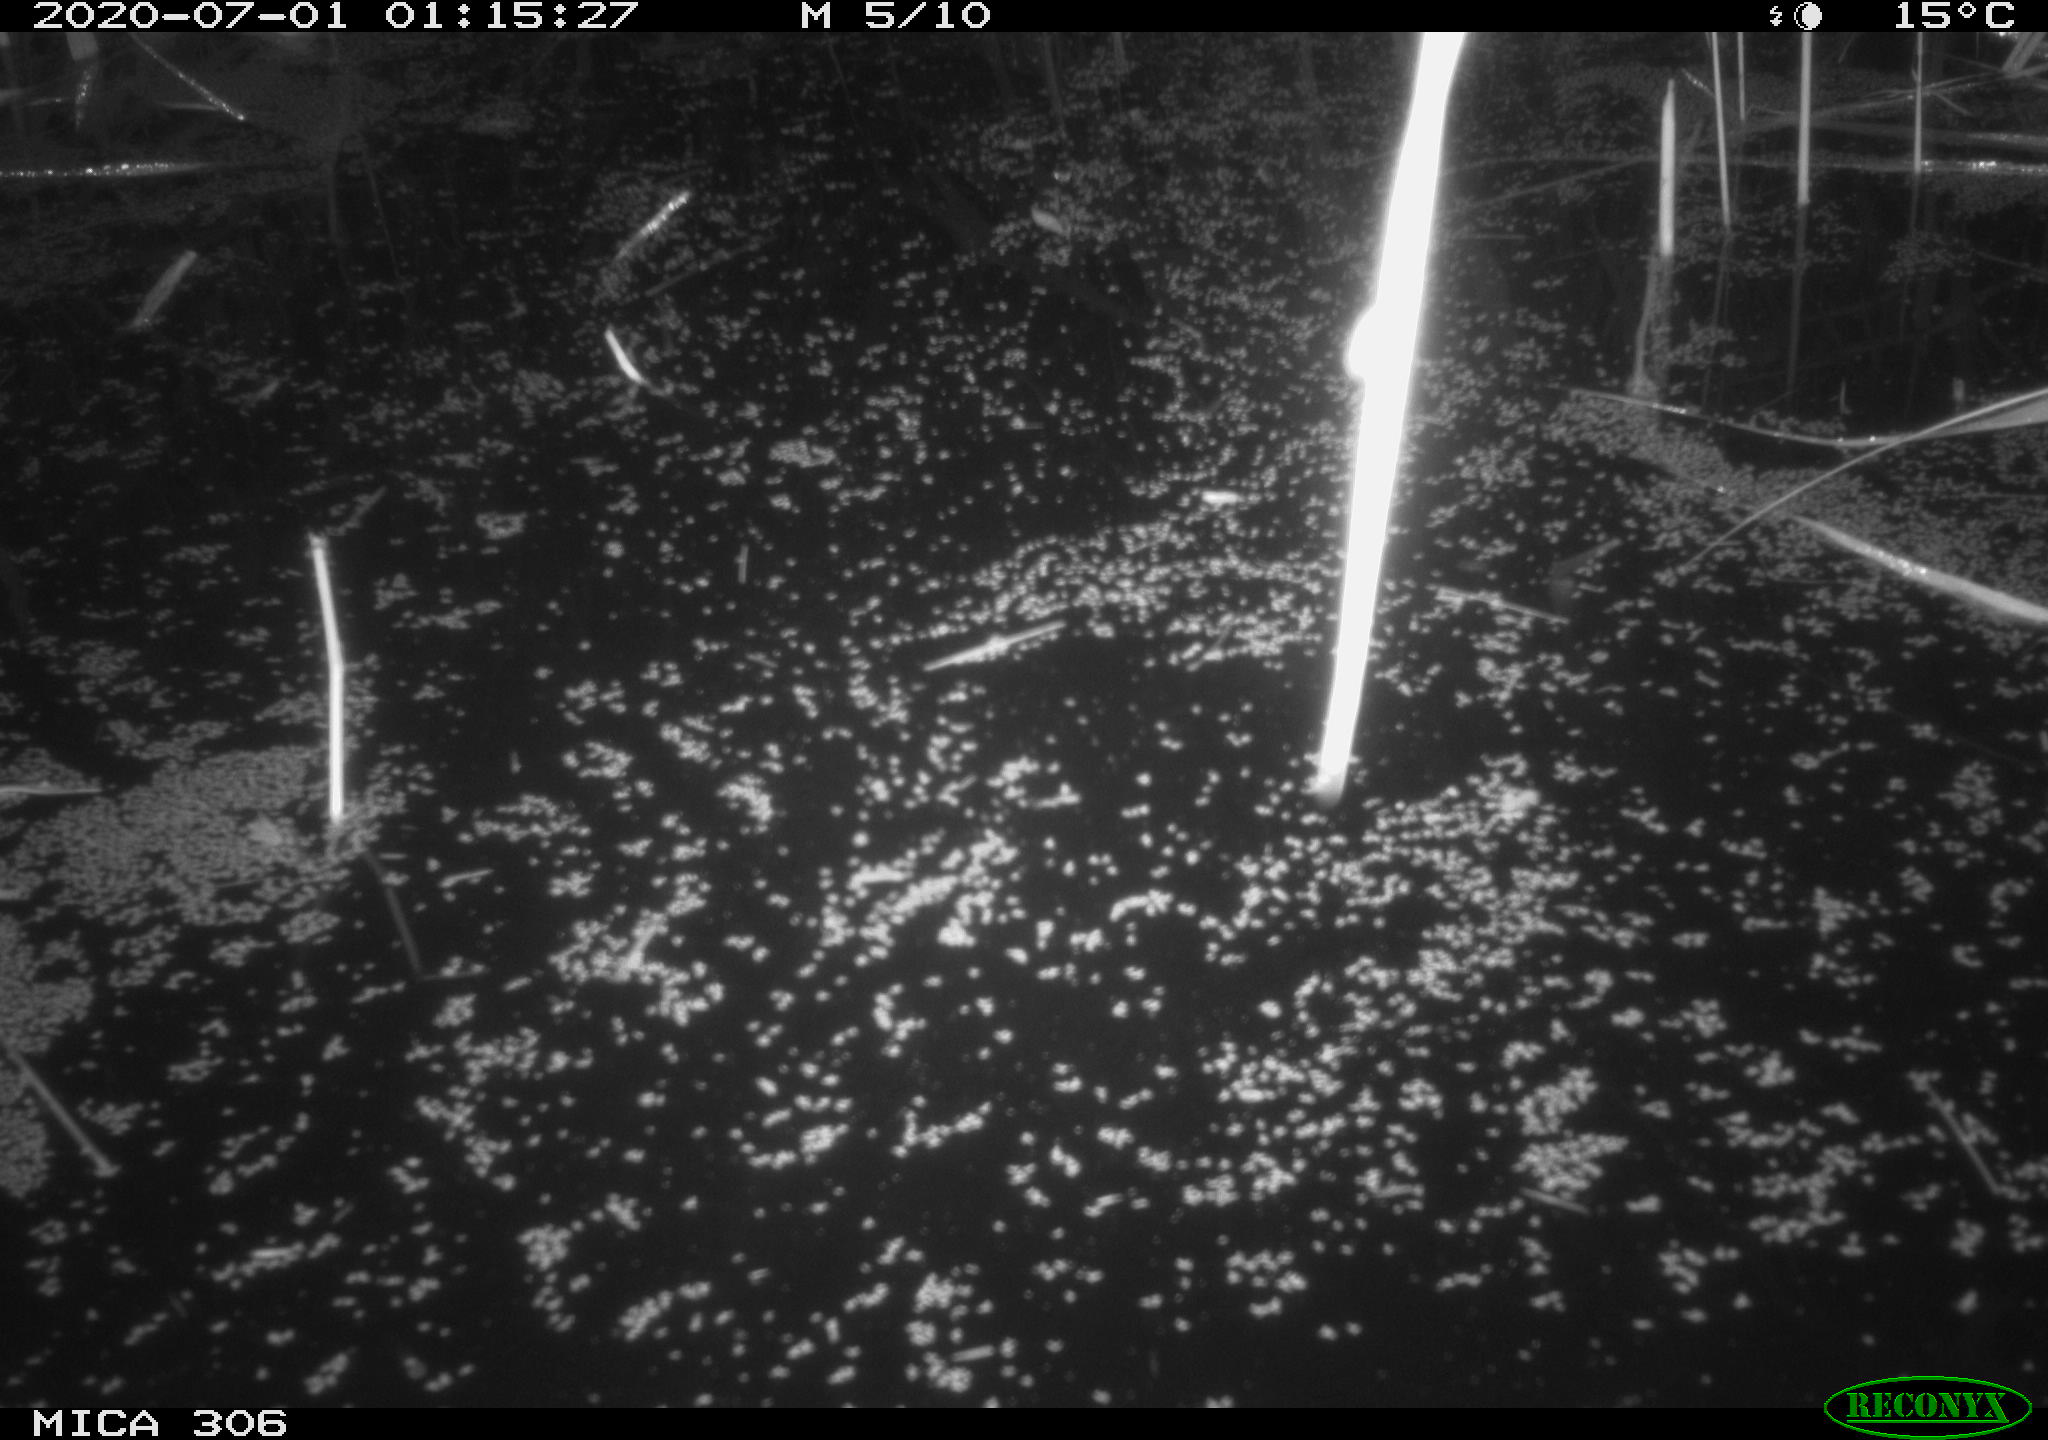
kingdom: Animalia
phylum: Chordata
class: Mammalia
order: Rodentia
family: Muridae
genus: Rattus
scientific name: Rattus norvegicus
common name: Brown rat
